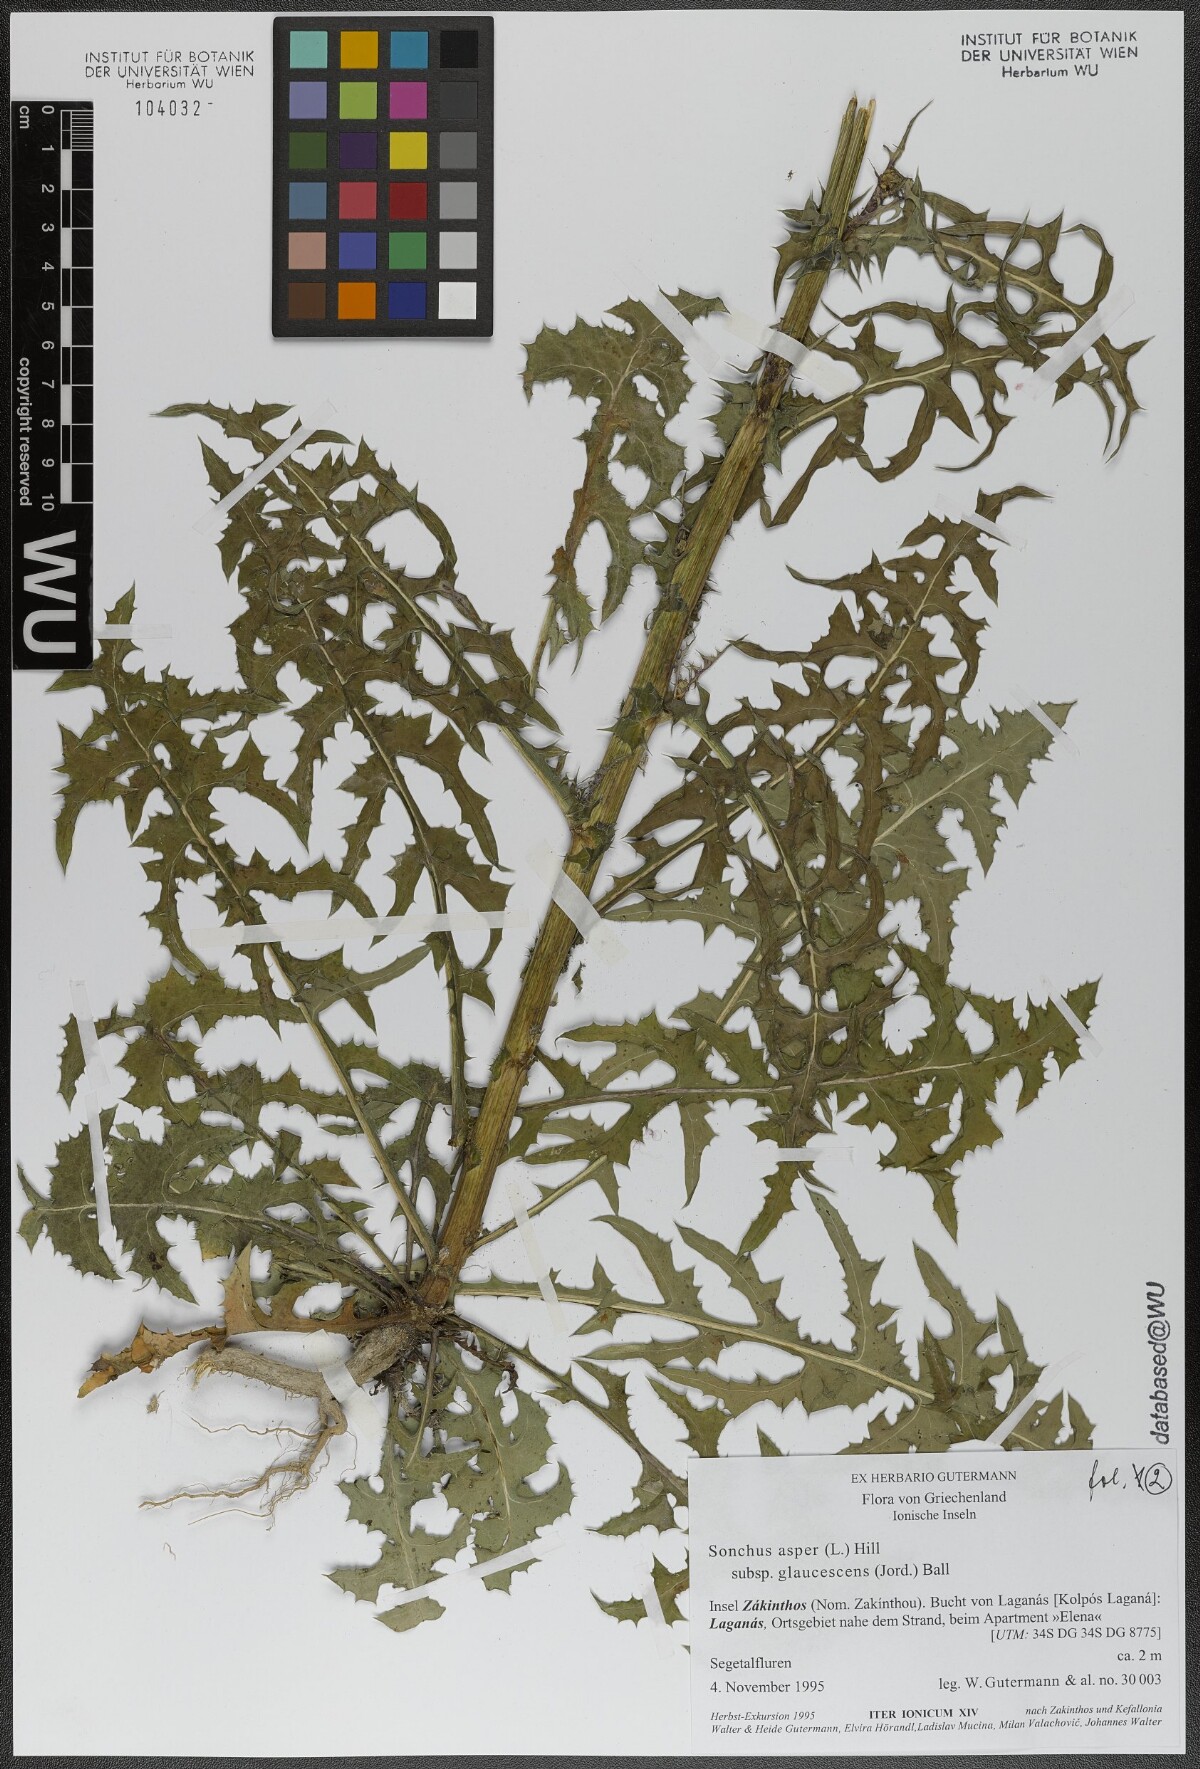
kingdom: Plantae
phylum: Tracheophyta
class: Magnoliopsida
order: Asterales
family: Asteraceae
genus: Sonchus
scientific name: Sonchus asper
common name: Prickly sow-thistle
